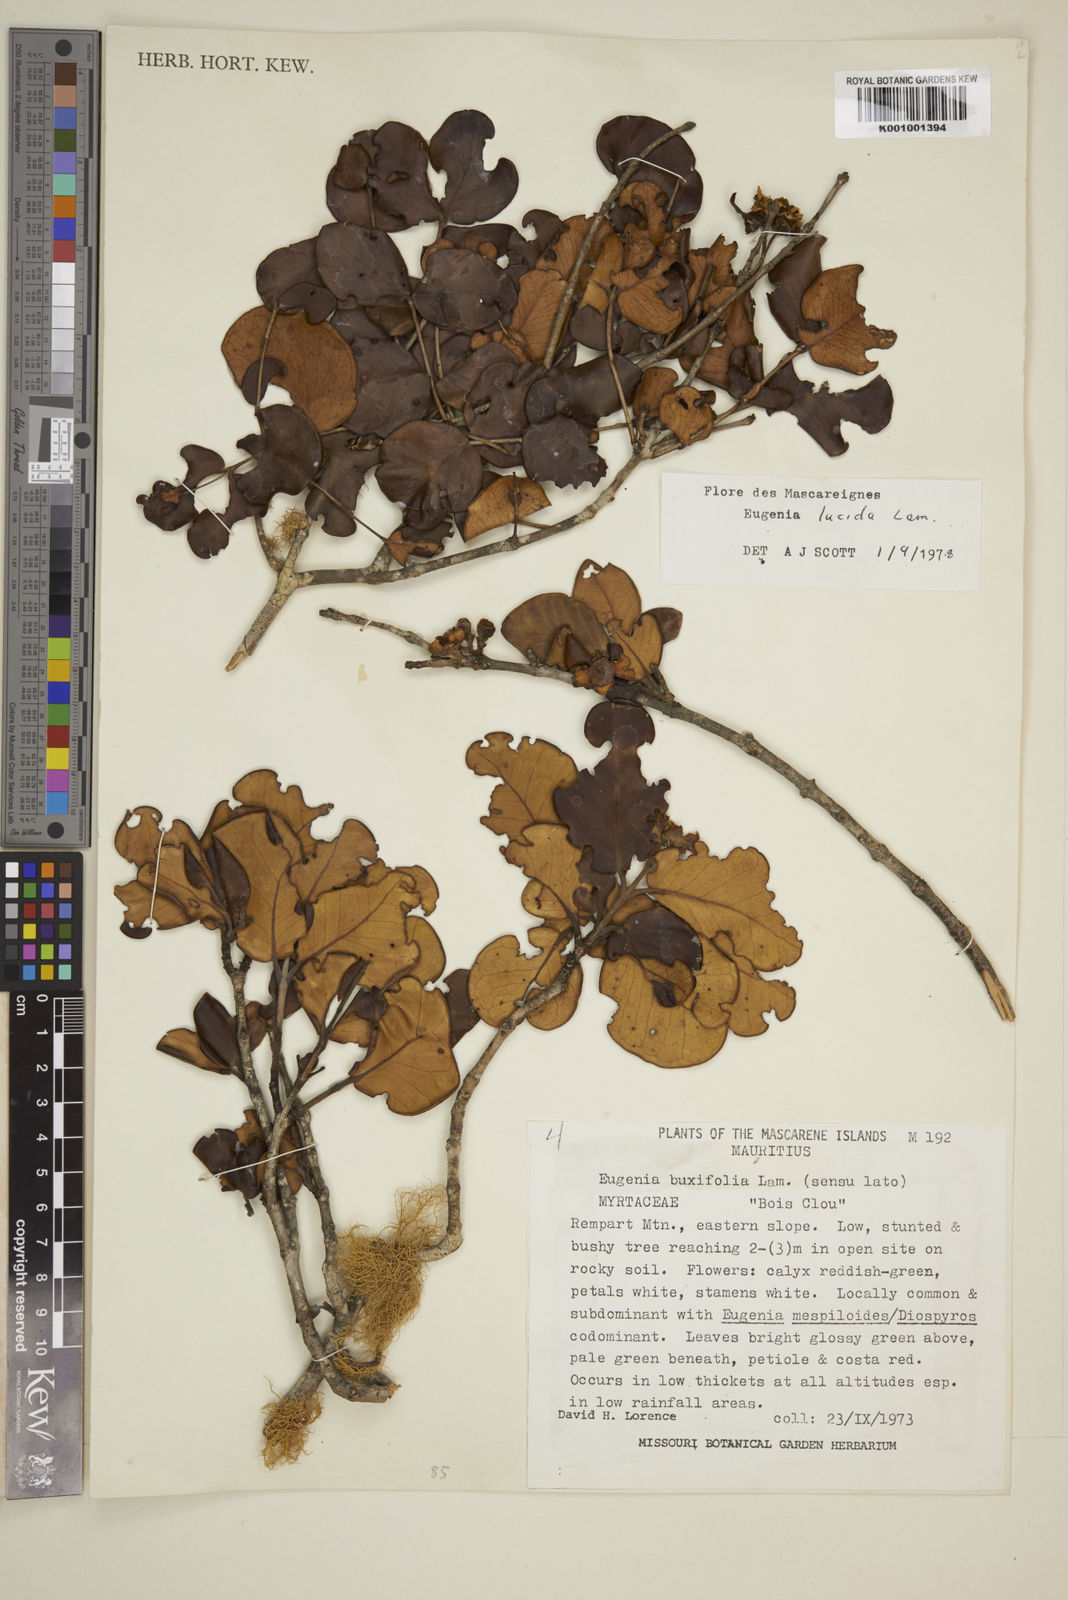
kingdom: Plantae
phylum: Tracheophyta
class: Magnoliopsida
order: Myrtales
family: Myrtaceae
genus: Eugenia
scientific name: Eugenia lucida
